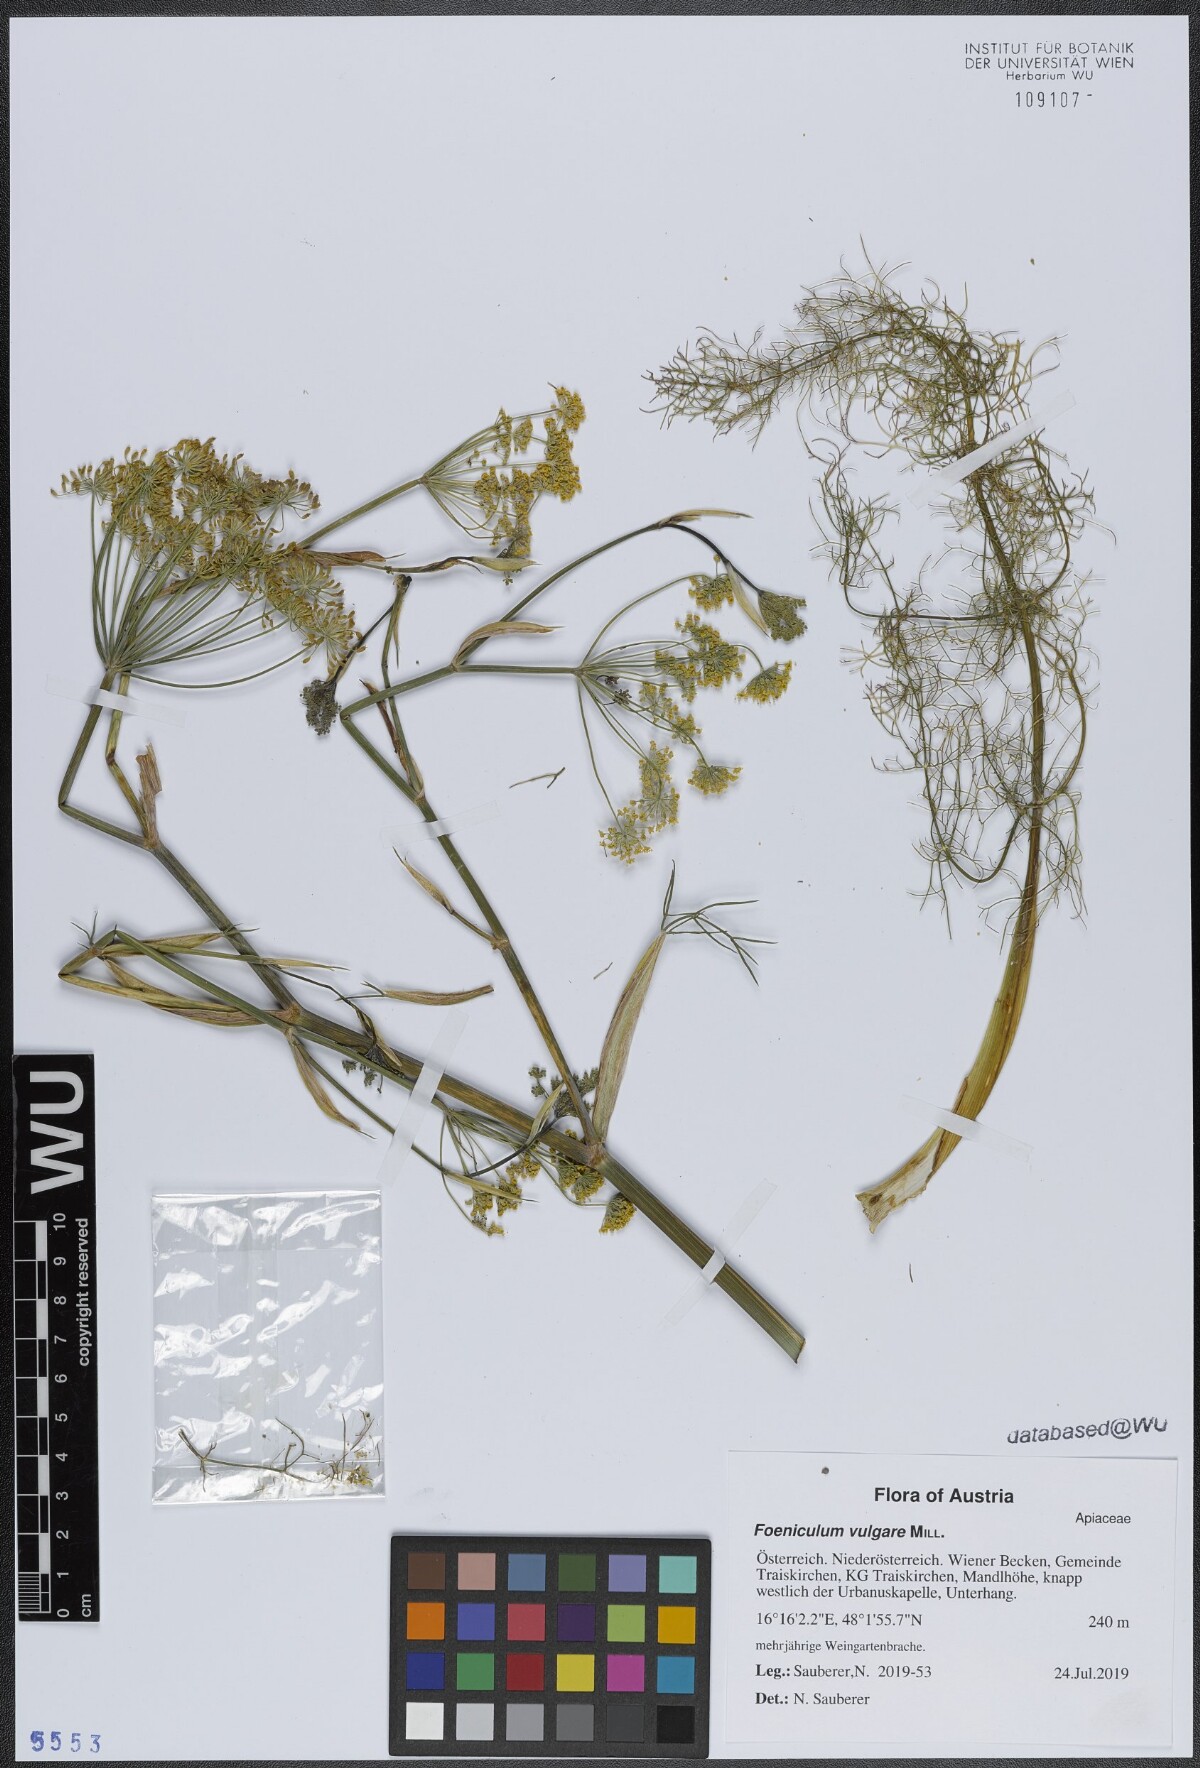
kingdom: Plantae
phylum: Tracheophyta
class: Magnoliopsida
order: Apiales
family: Apiaceae
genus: Foeniculum
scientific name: Foeniculum vulgare
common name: Fennel
